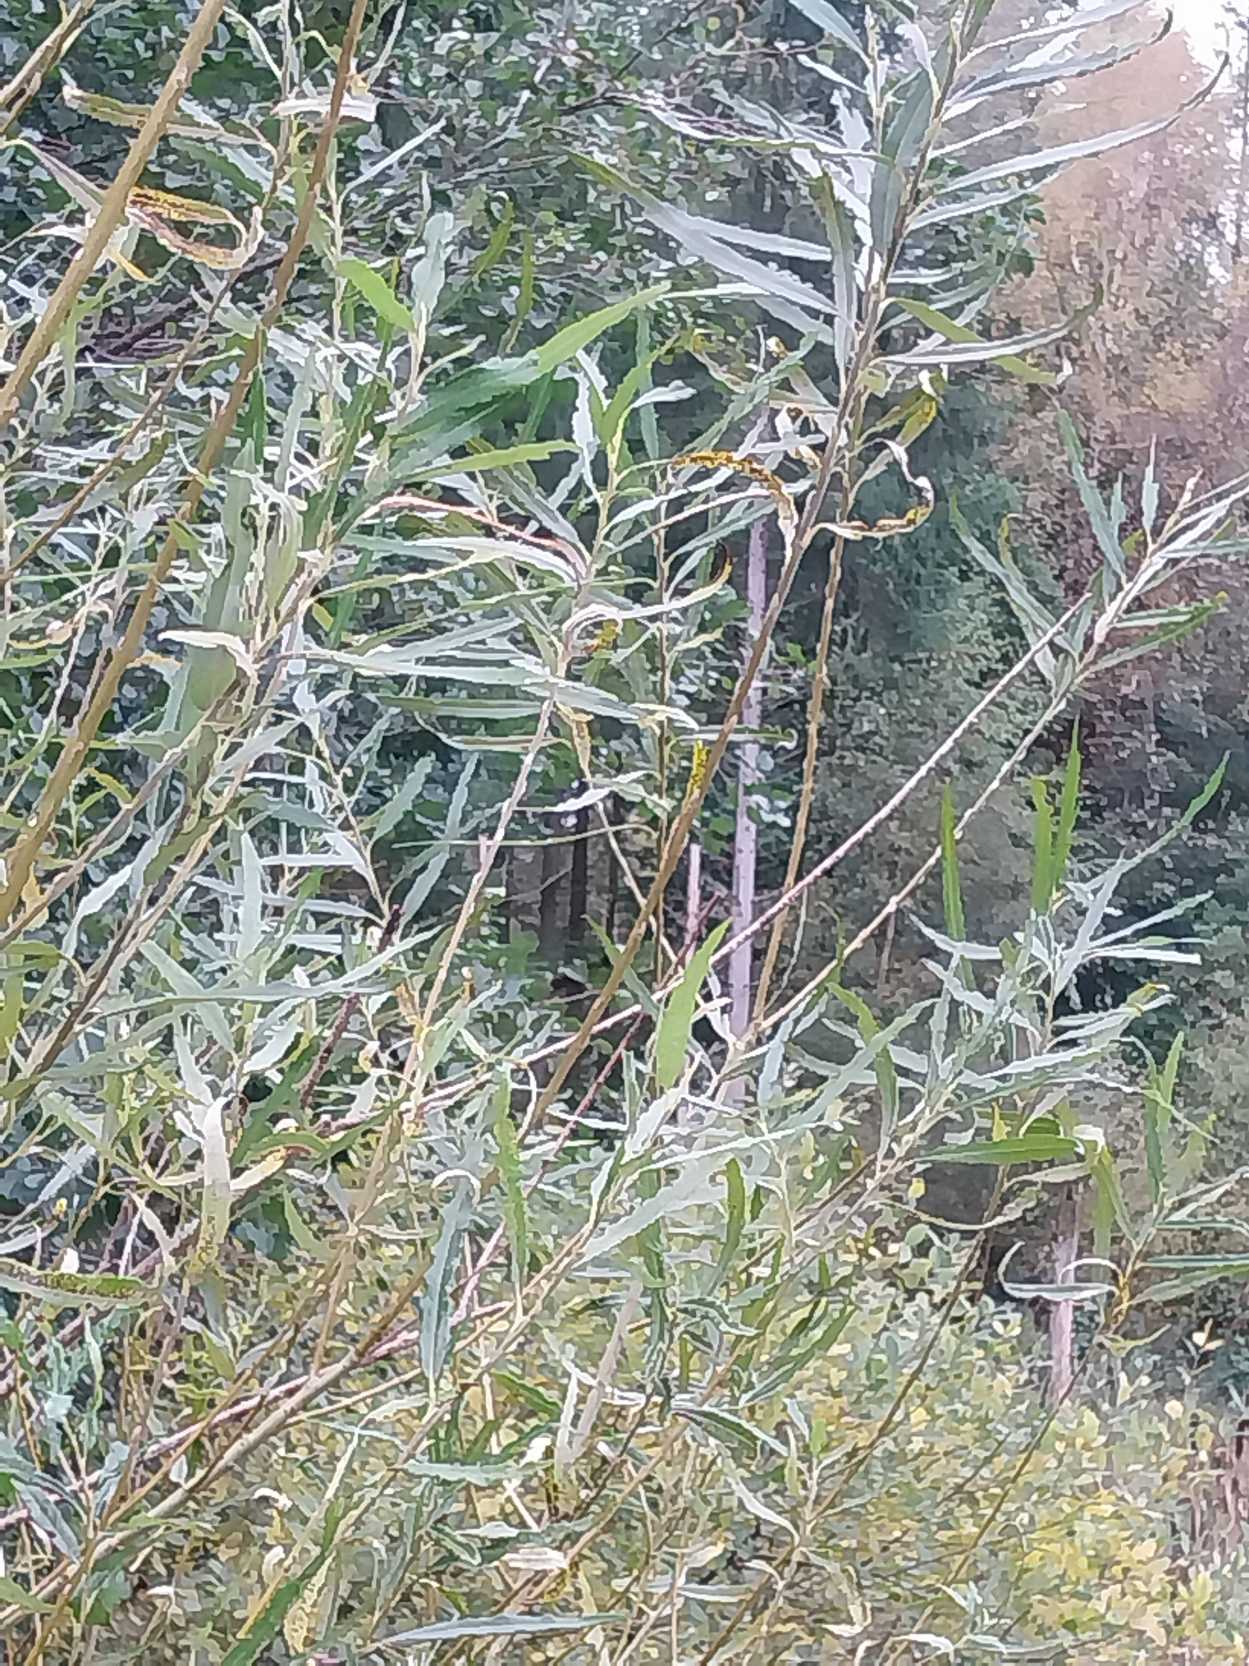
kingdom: Plantae
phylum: Tracheophyta
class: Magnoliopsida
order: Malpighiales
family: Salicaceae
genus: Salix
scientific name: Salix viminalis
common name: Bånd-pil
